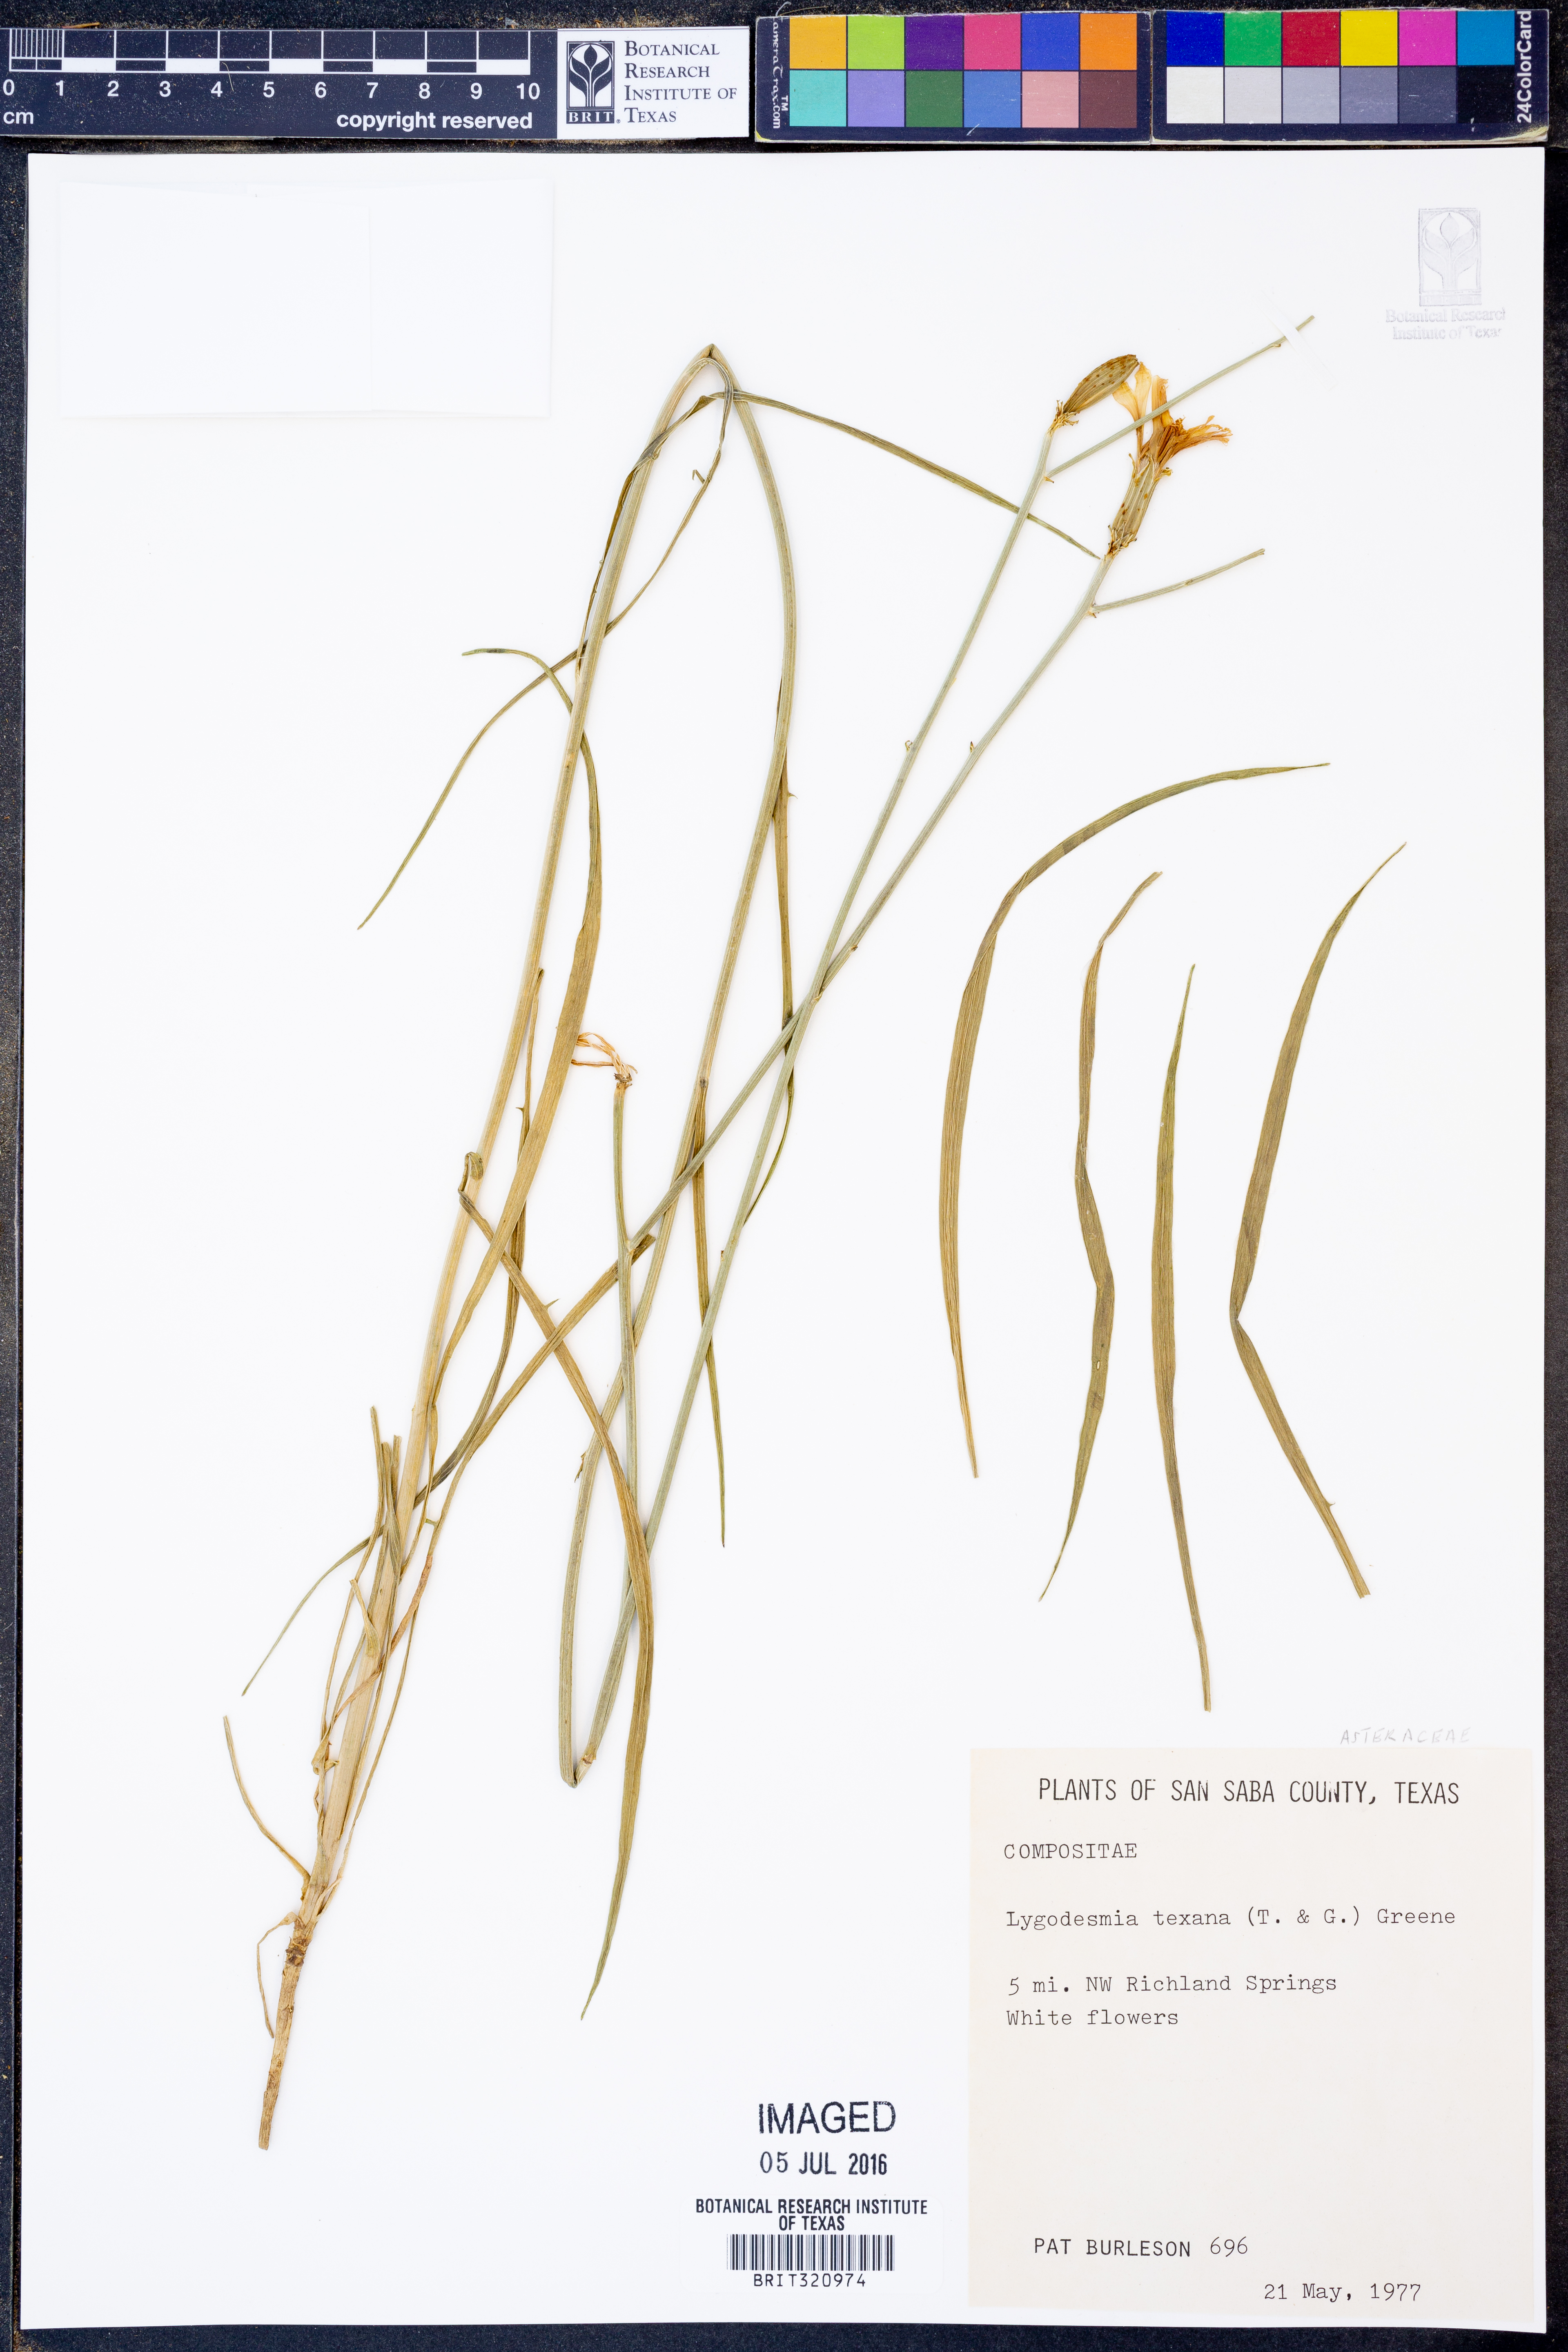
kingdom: Plantae
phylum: Tracheophyta
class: Magnoliopsida
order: Asterales
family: Asteraceae
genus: Lygodesmia
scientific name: Lygodesmia texana
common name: Texas skeleton-plant
